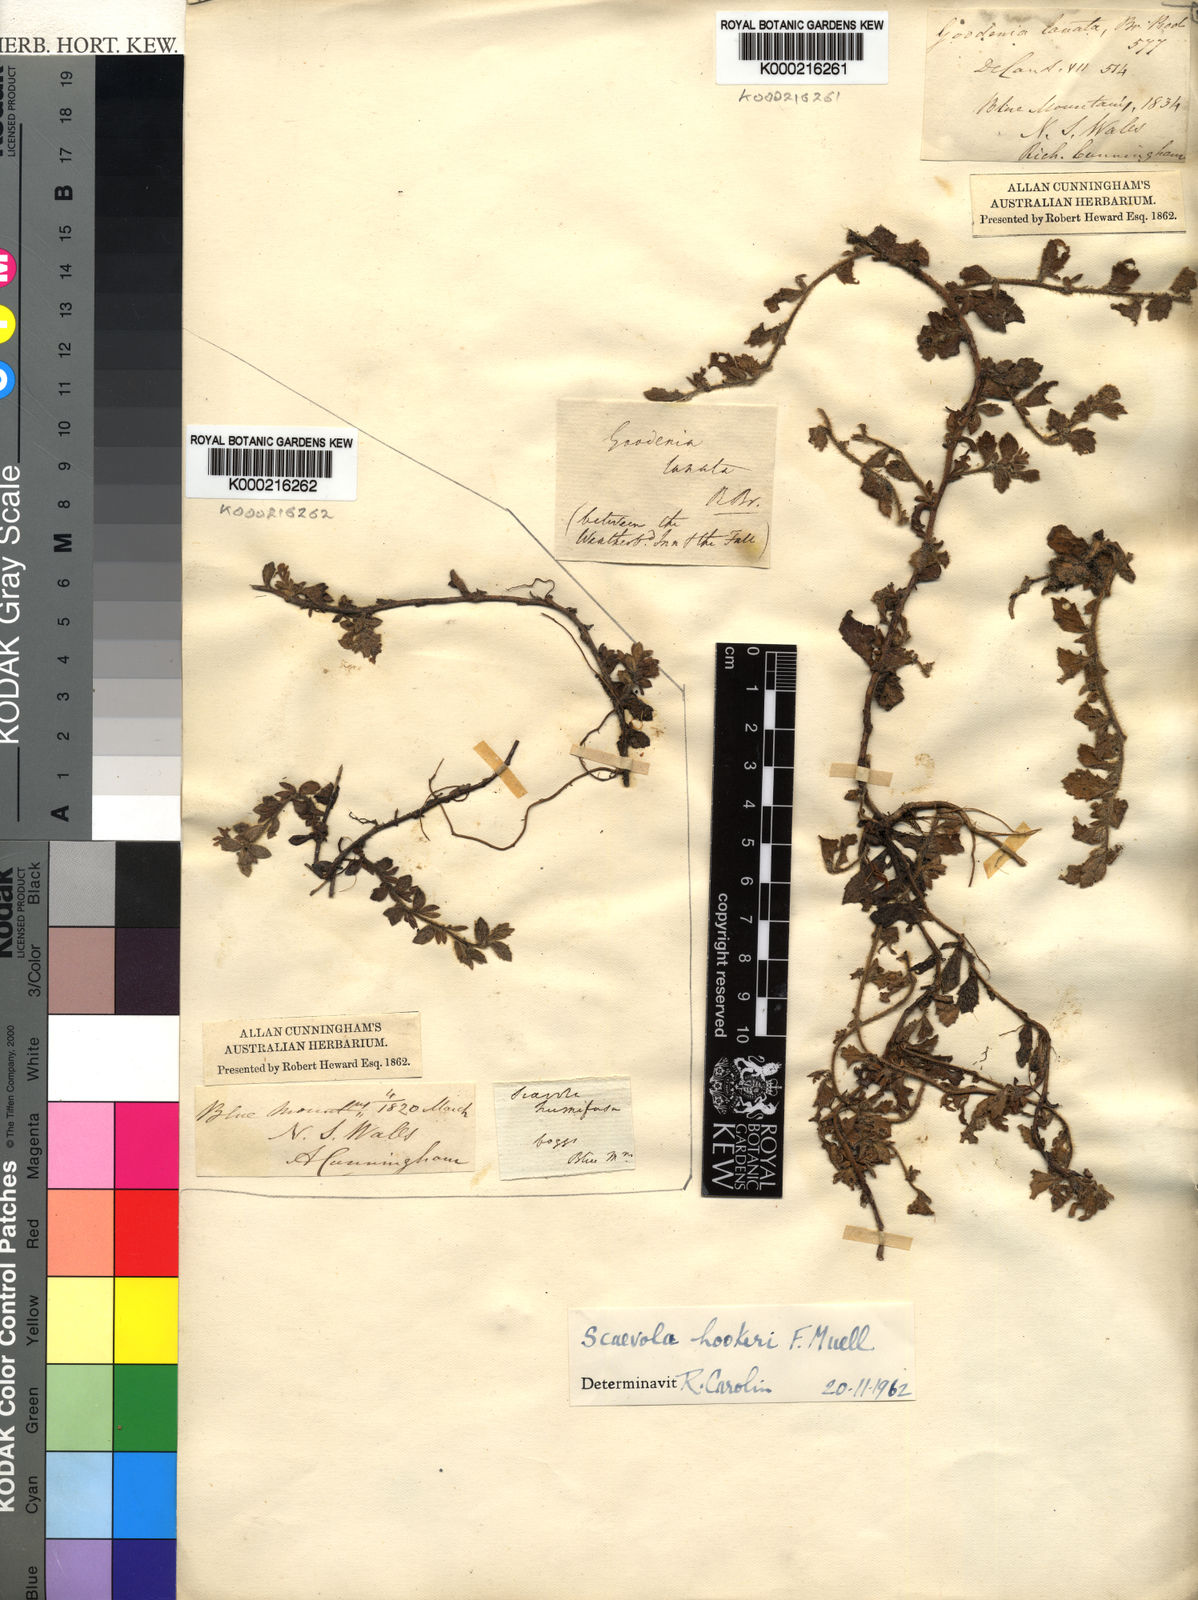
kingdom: Plantae
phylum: Tracheophyta
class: Magnoliopsida
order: Asterales
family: Goodeniaceae
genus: Scaevola
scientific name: Scaevola hookeri
